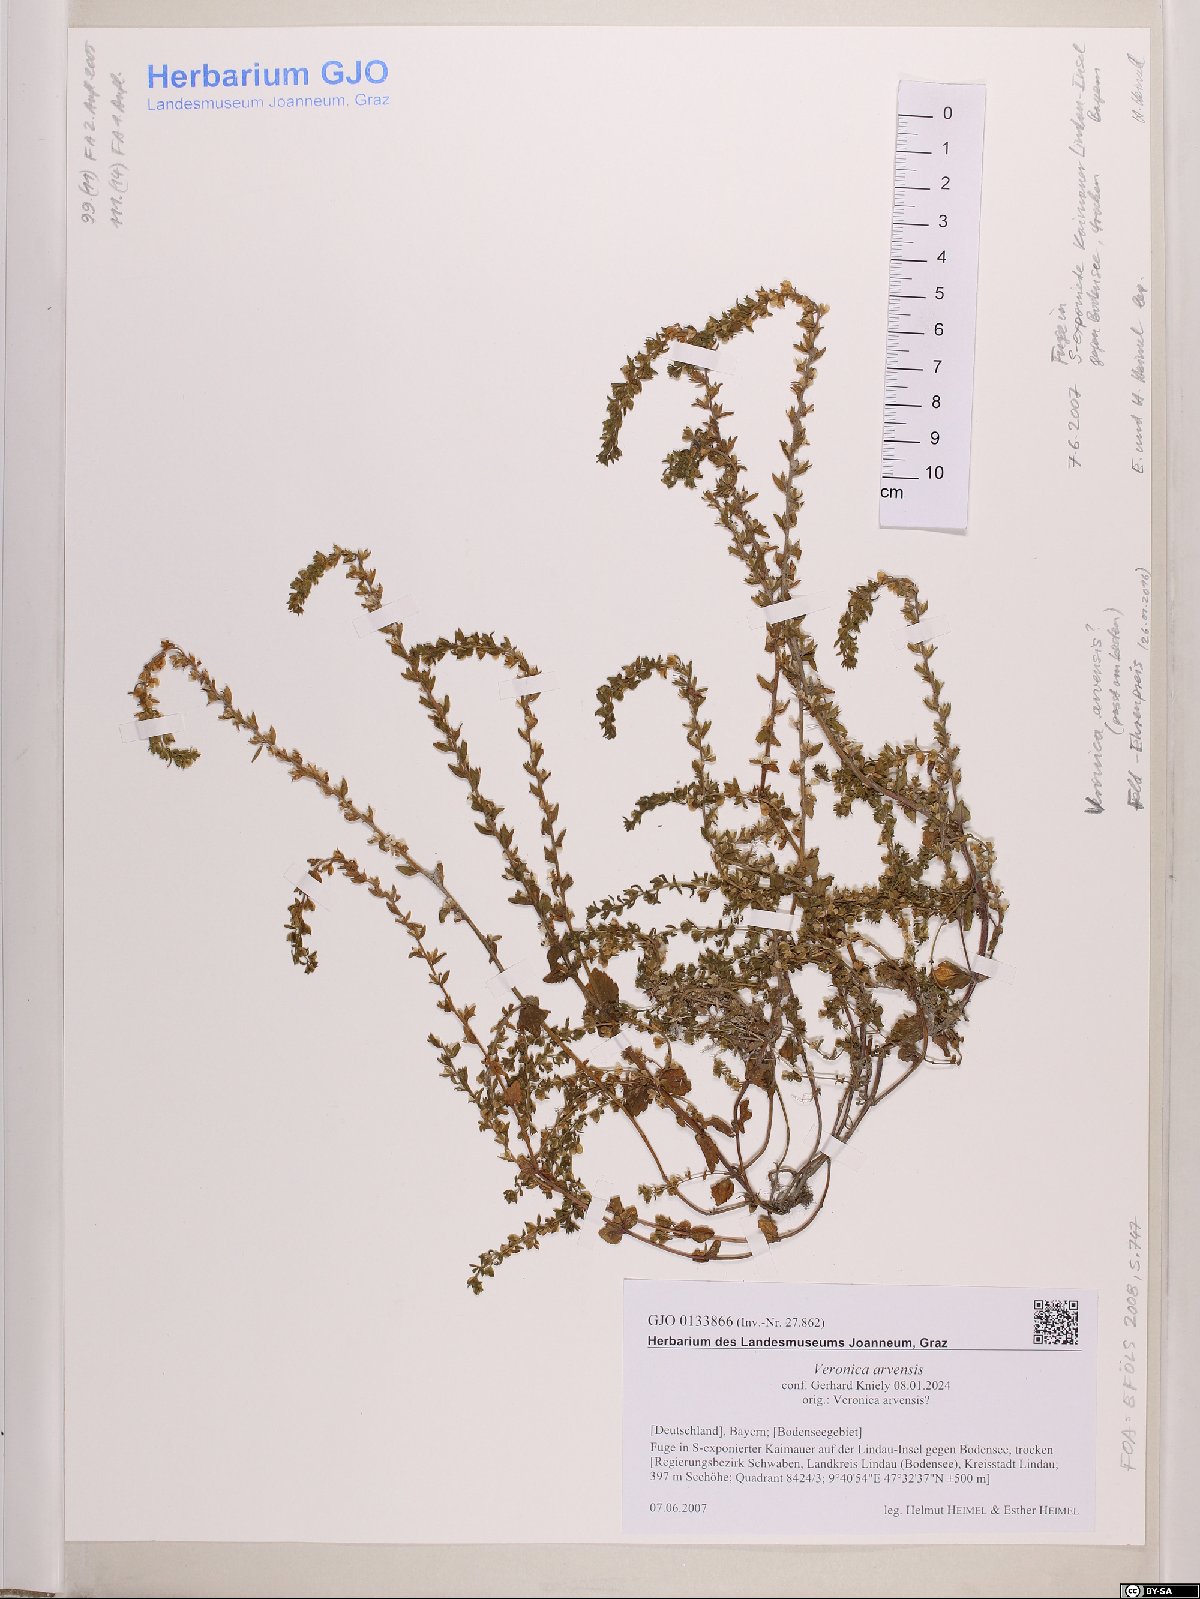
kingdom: Plantae
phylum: Tracheophyta
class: Magnoliopsida
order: Lamiales
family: Plantaginaceae
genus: Veronica
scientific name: Veronica arvensis
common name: Corn speedwell
